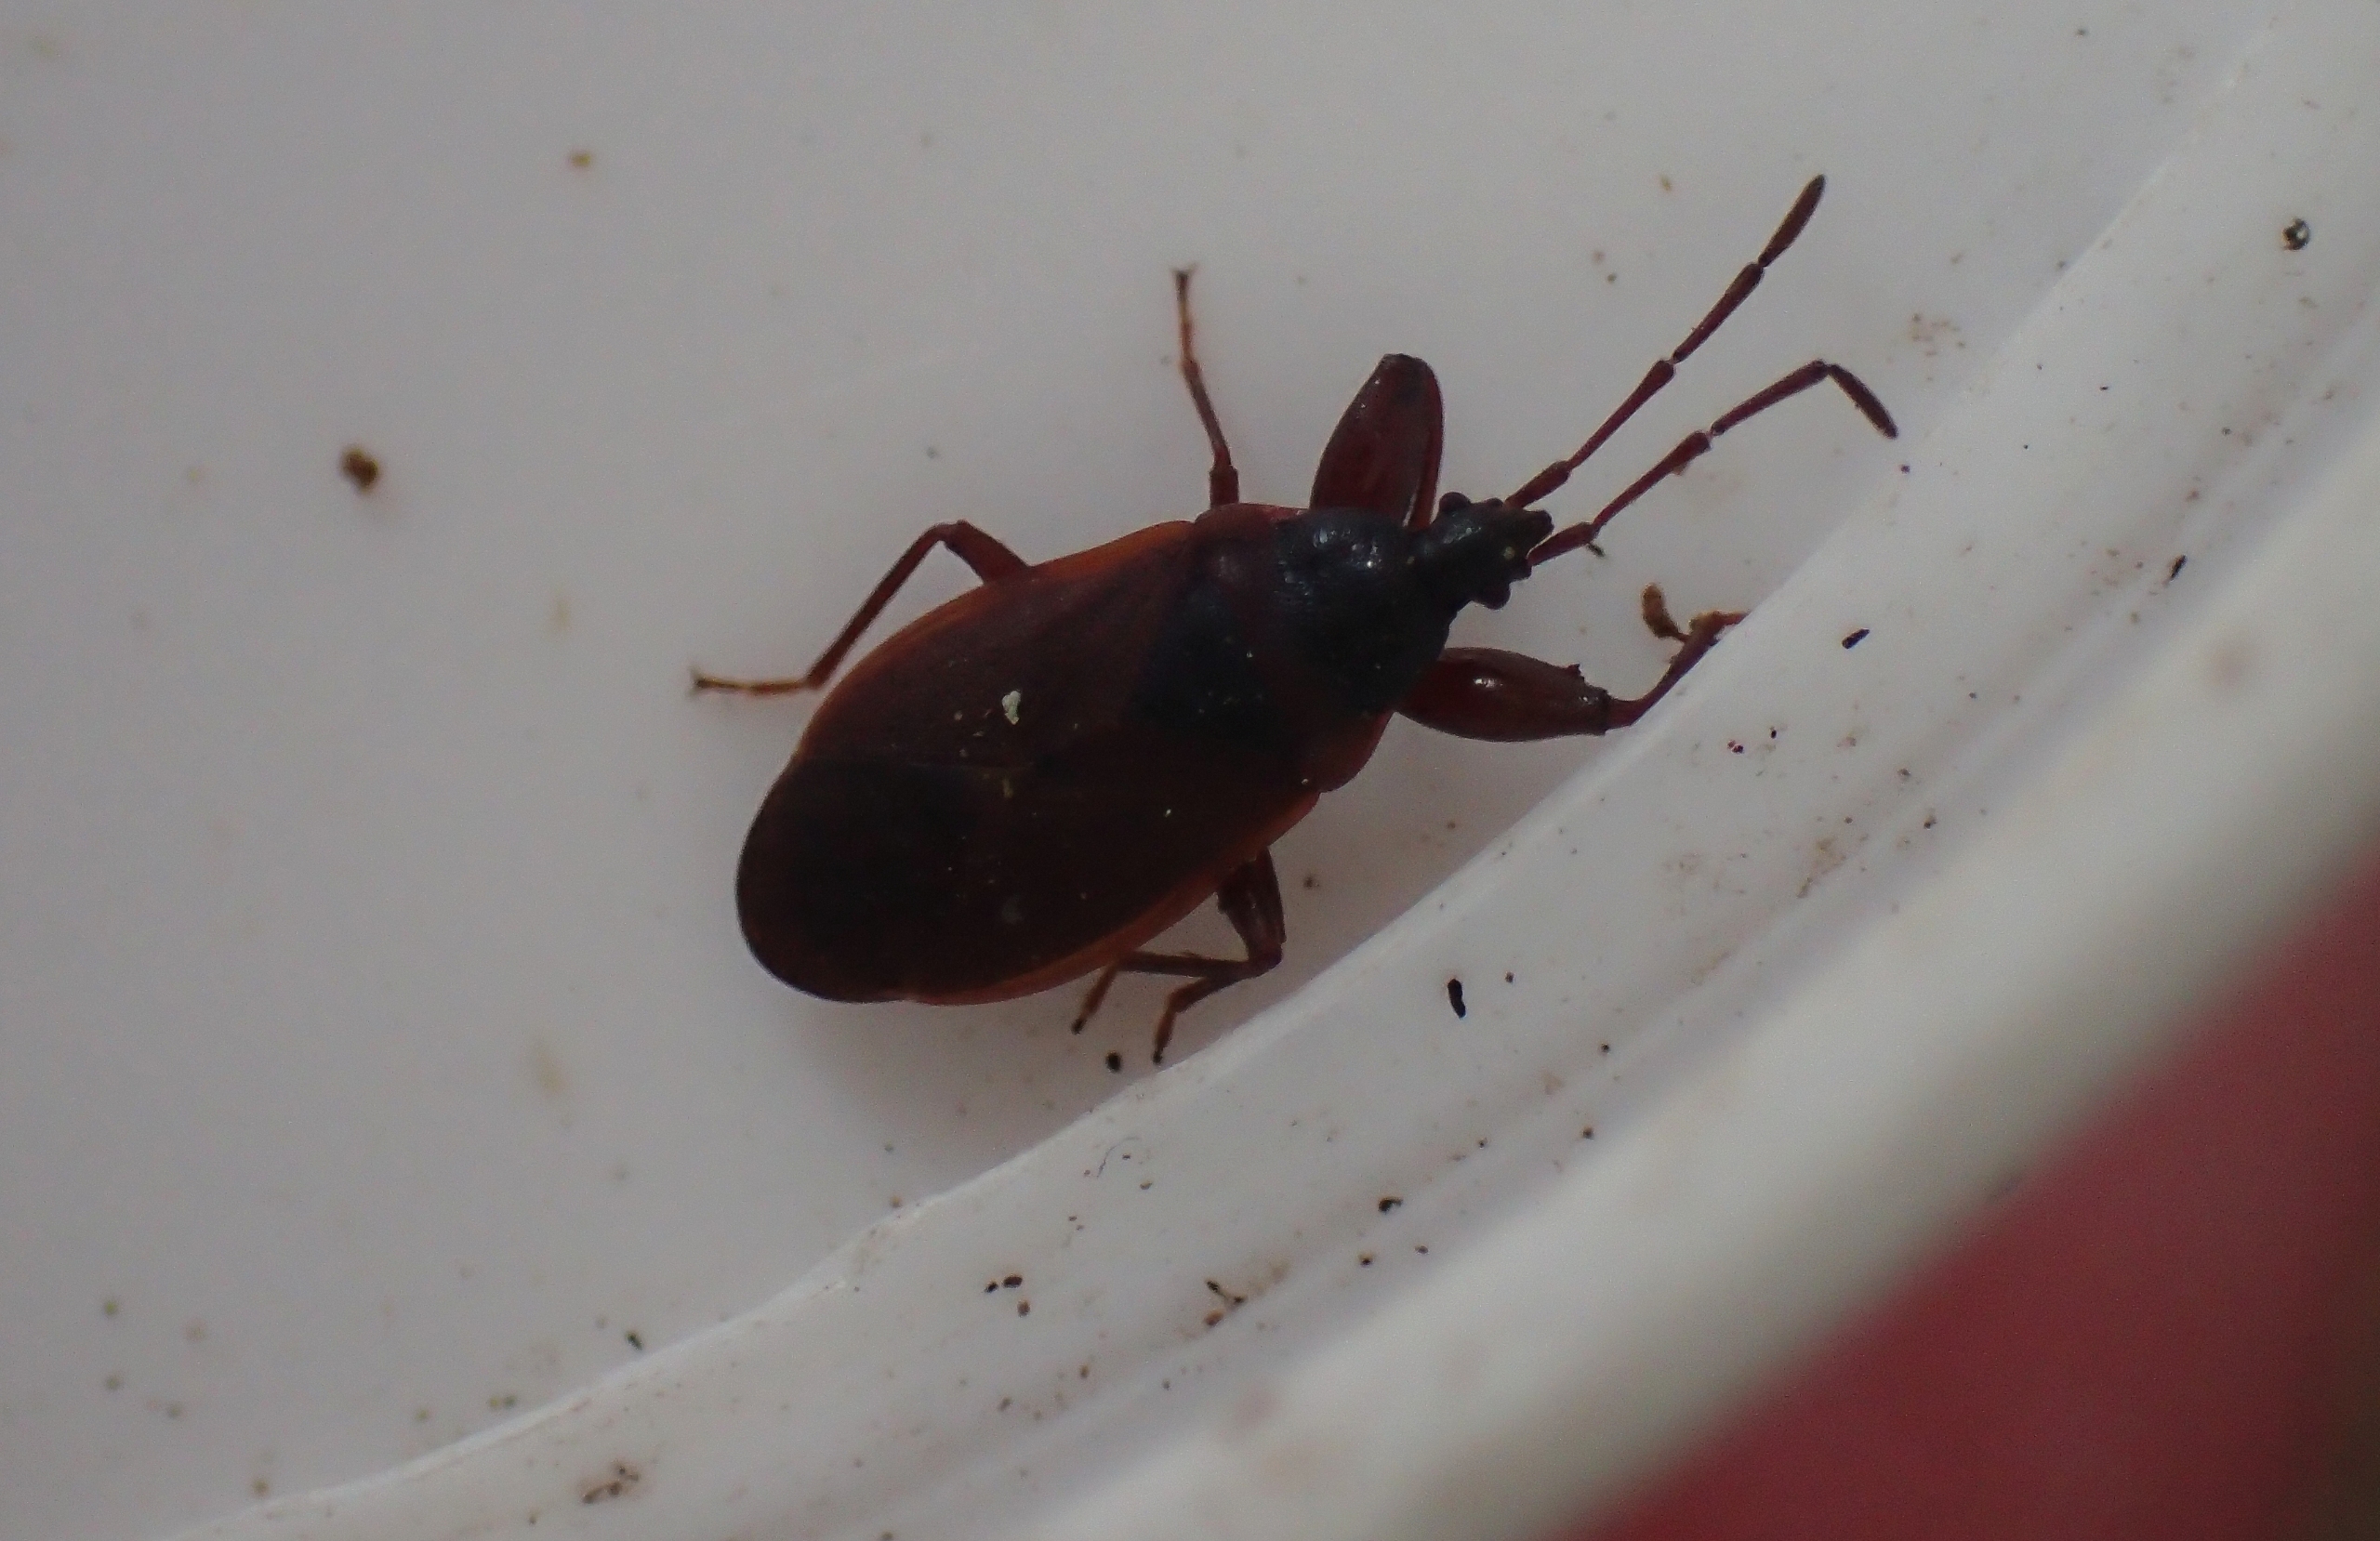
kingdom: Animalia
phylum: Arthropoda
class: Insecta
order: Hemiptera
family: Rhyparochromidae
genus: Gastrodes
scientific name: Gastrodes grossipes
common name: Fyrrekogletæge
